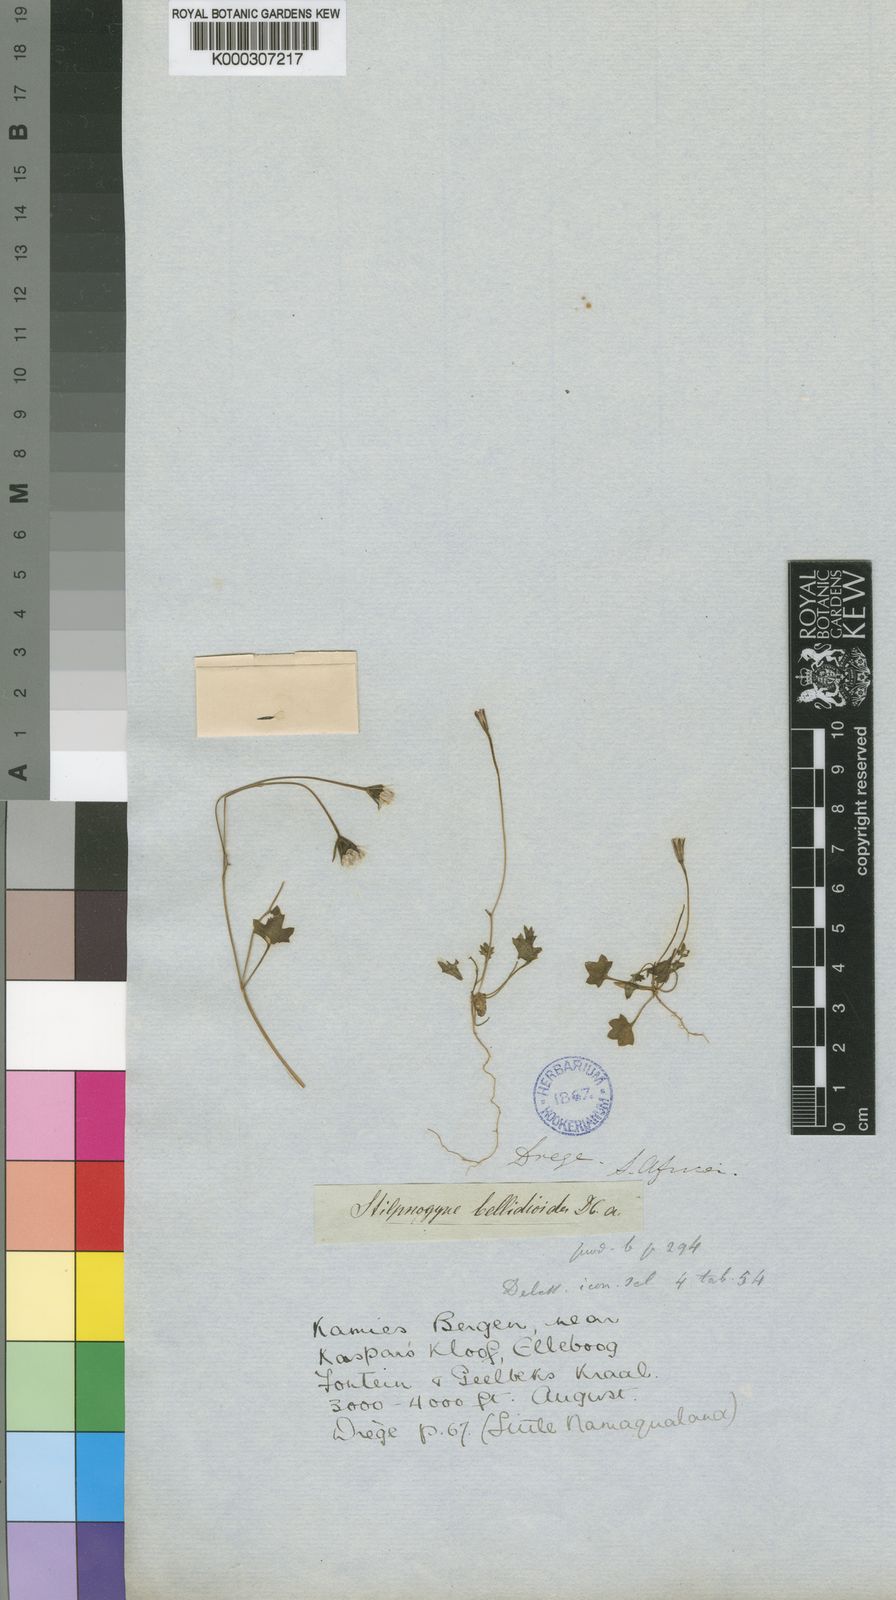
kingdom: Plantae
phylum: Tracheophyta
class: Magnoliopsida
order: Asterales
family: Asteraceae
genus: Stilpnogyne
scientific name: Stilpnogyne bellidioides
